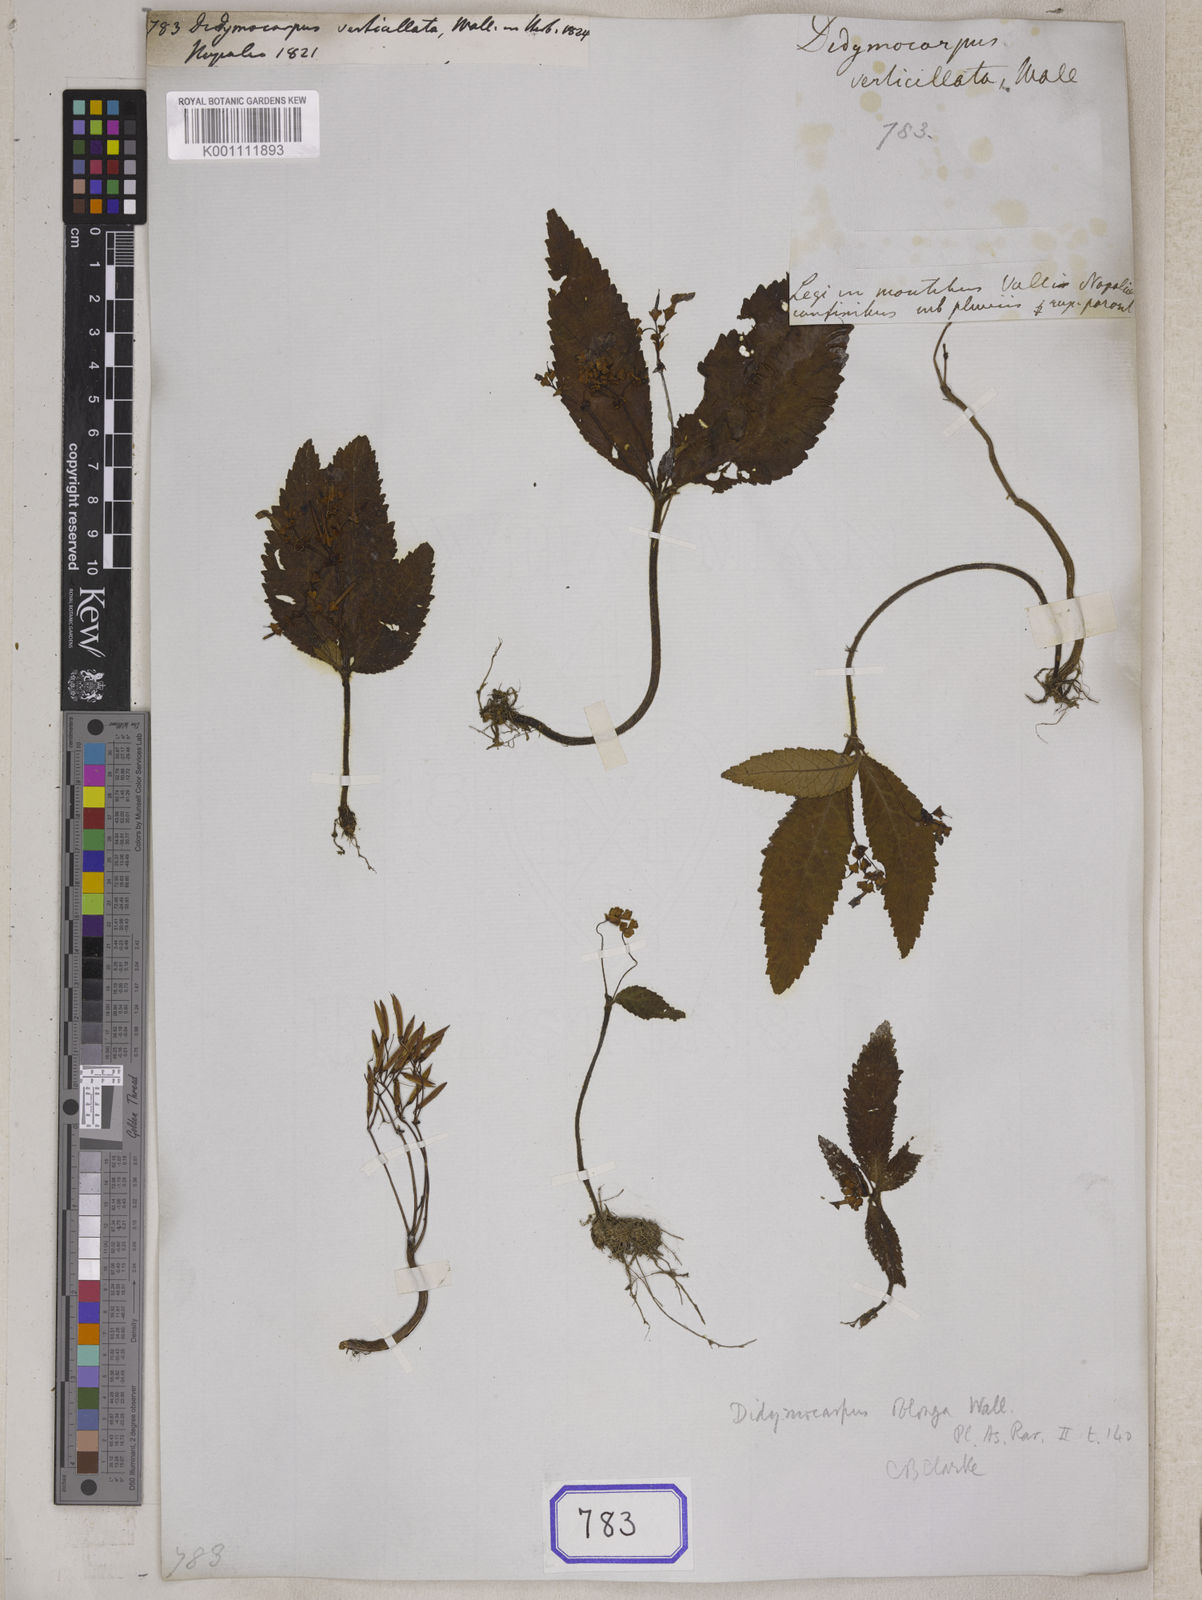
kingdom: Plantae
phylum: Tracheophyta
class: Magnoliopsida
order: Lamiales
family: Gesneriaceae
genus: Didymocarpus
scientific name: Didymocarpus
